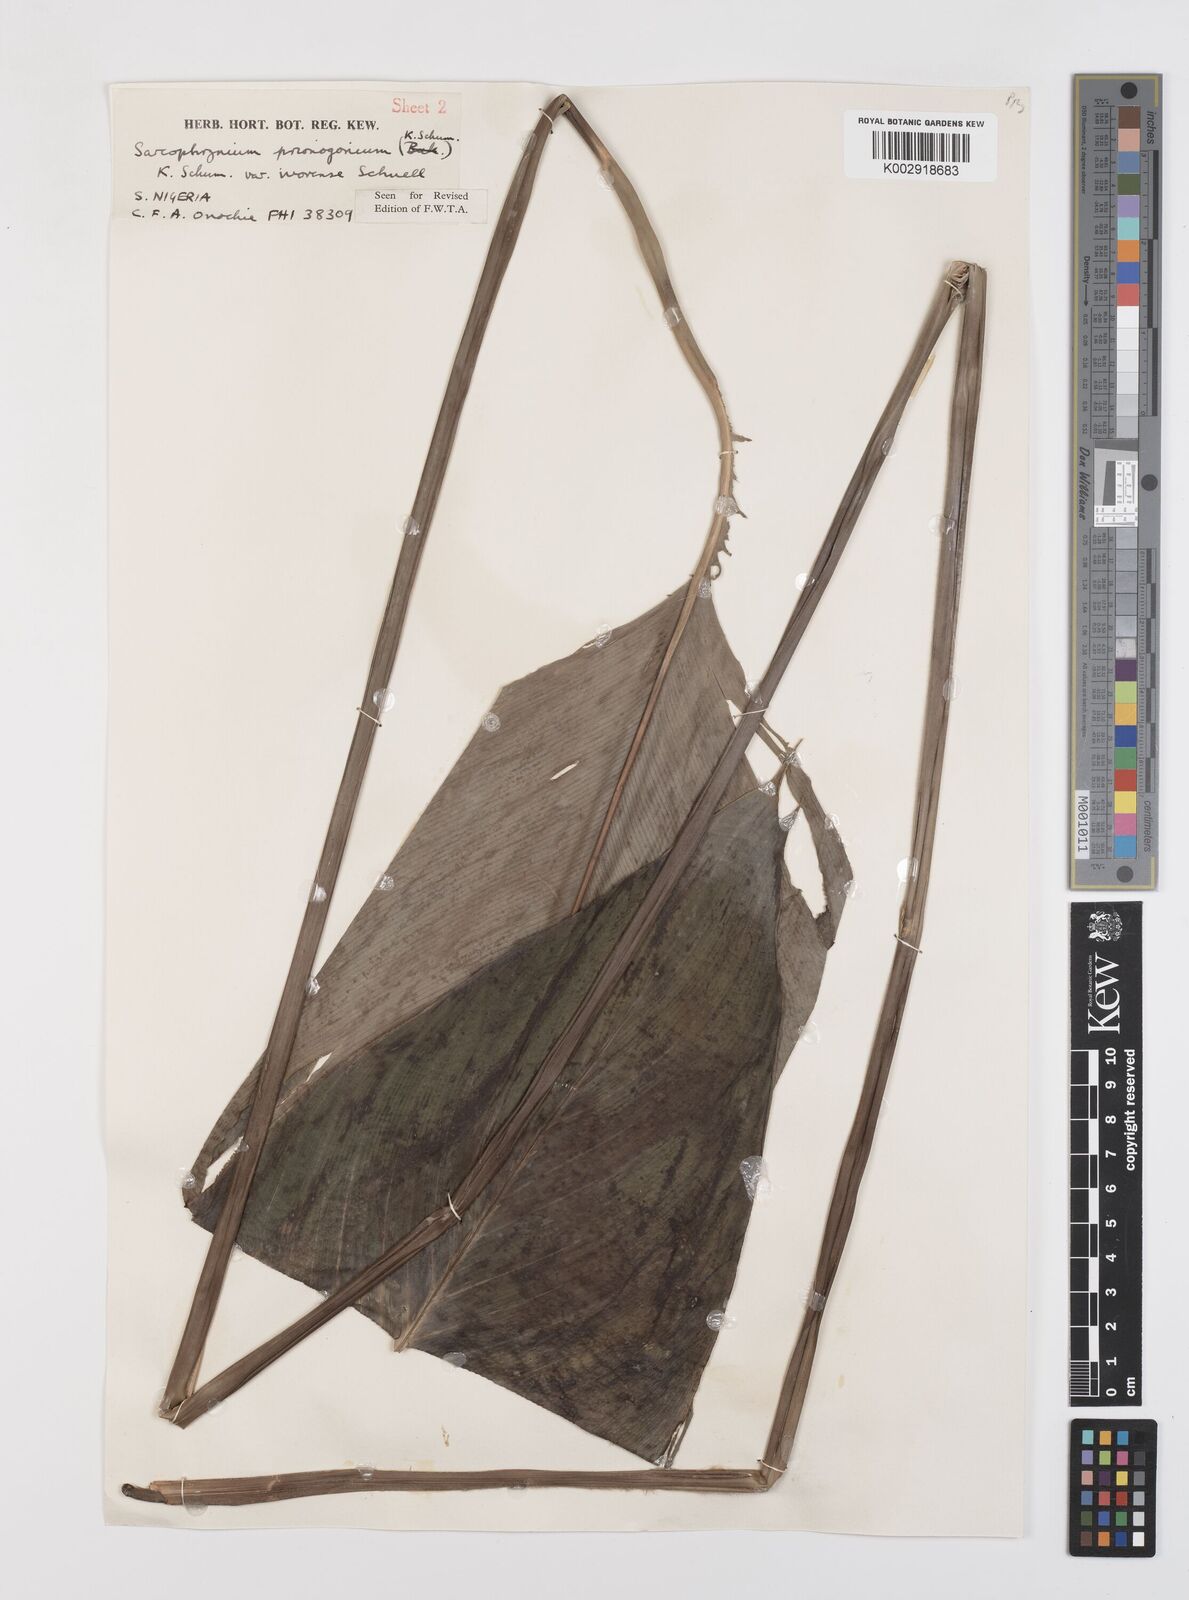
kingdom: Plantae
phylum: Tracheophyta
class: Liliopsida
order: Zingiberales
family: Marantaceae
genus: Sarcophrynium
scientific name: Sarcophrynium prionogonium
